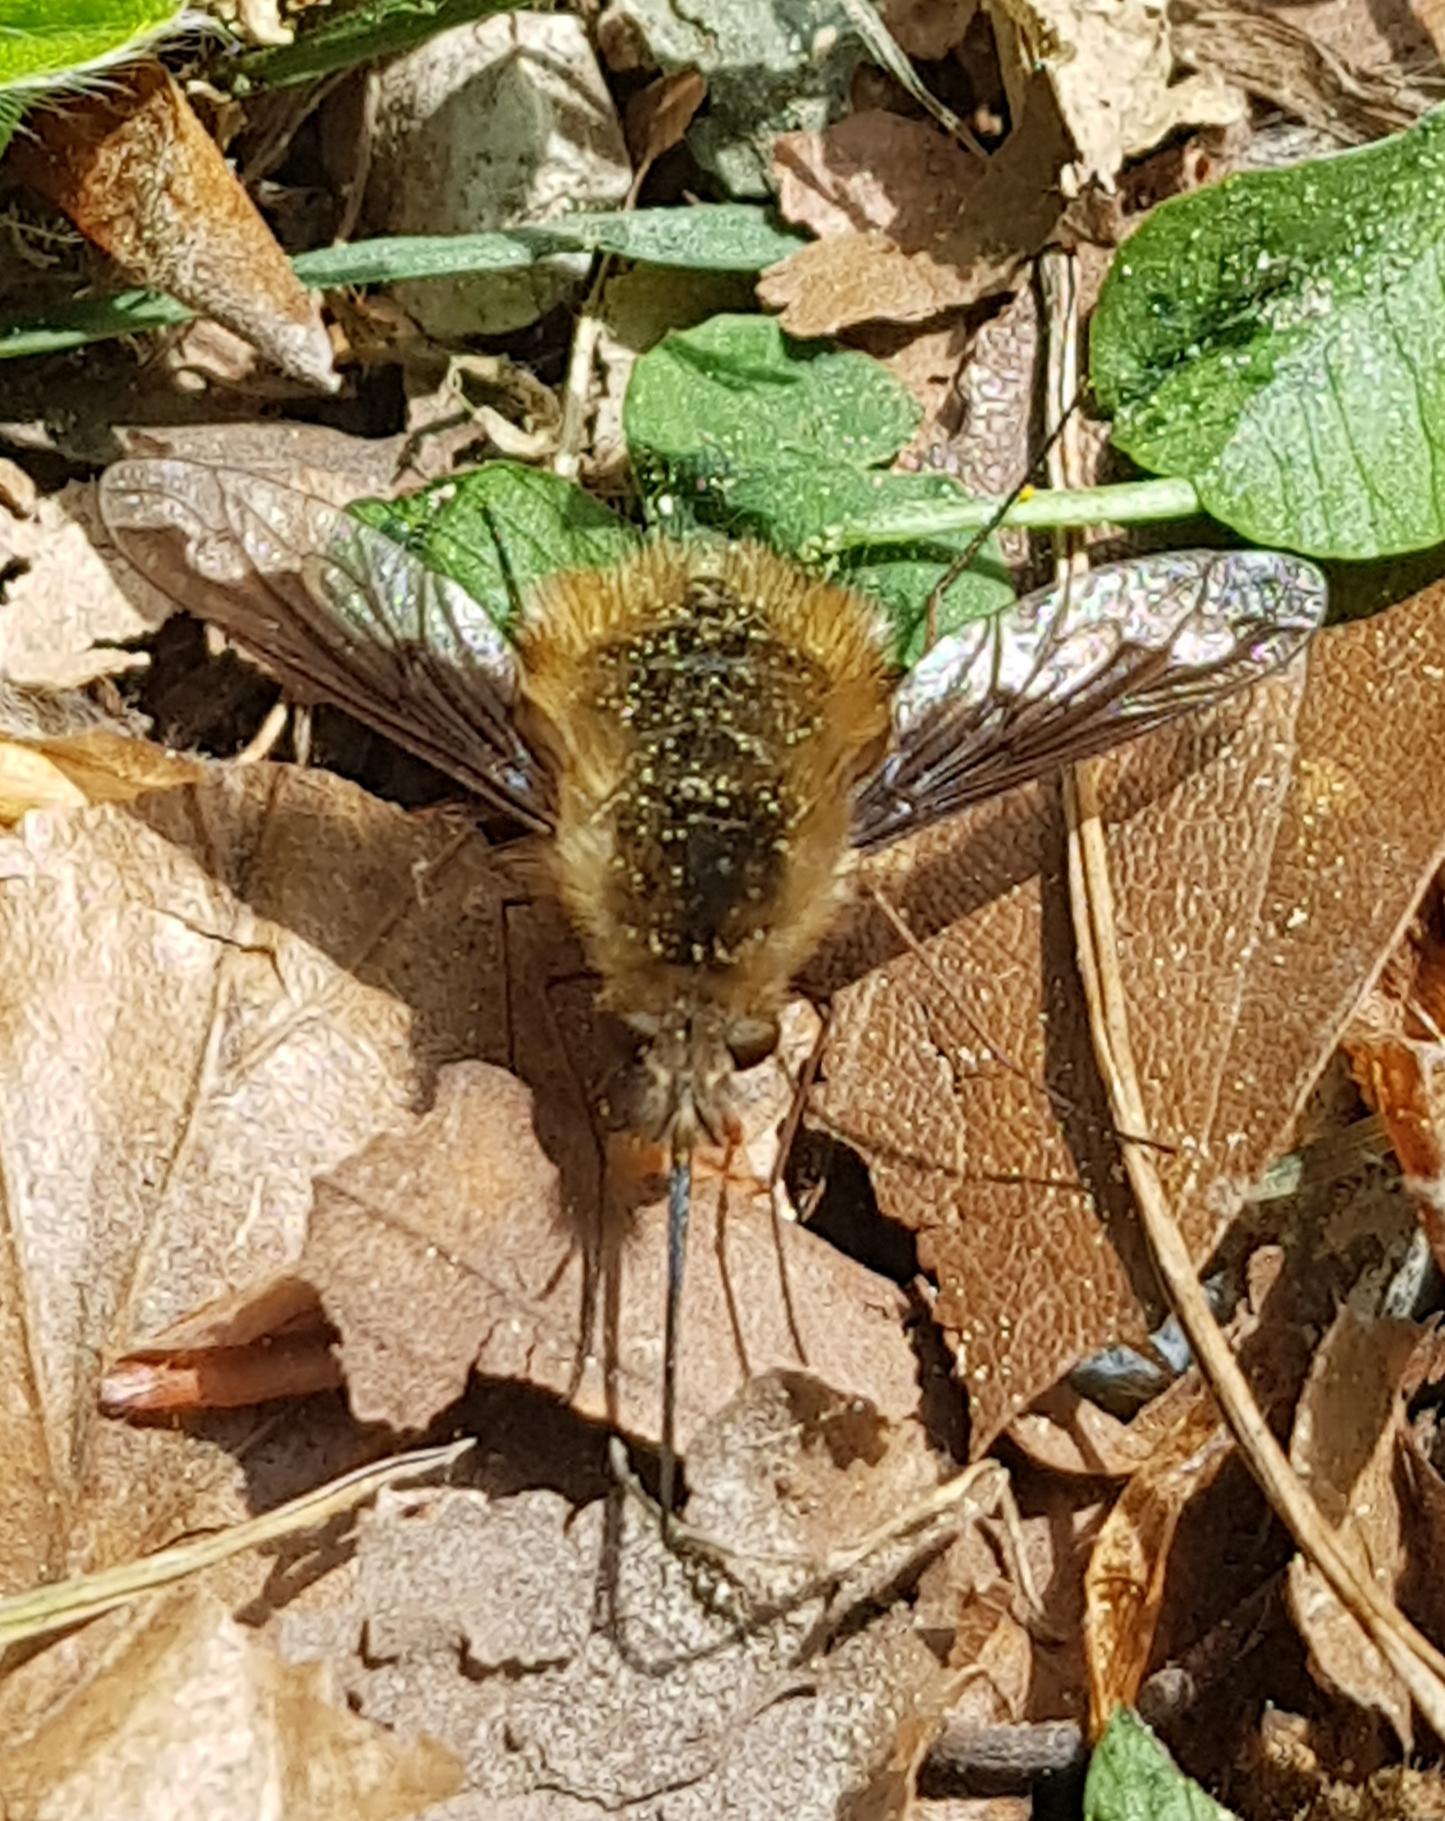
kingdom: Animalia
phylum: Arthropoda
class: Insecta
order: Diptera
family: Bombyliidae
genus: Bombylius
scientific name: Bombylius major
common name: Stor humleflue
